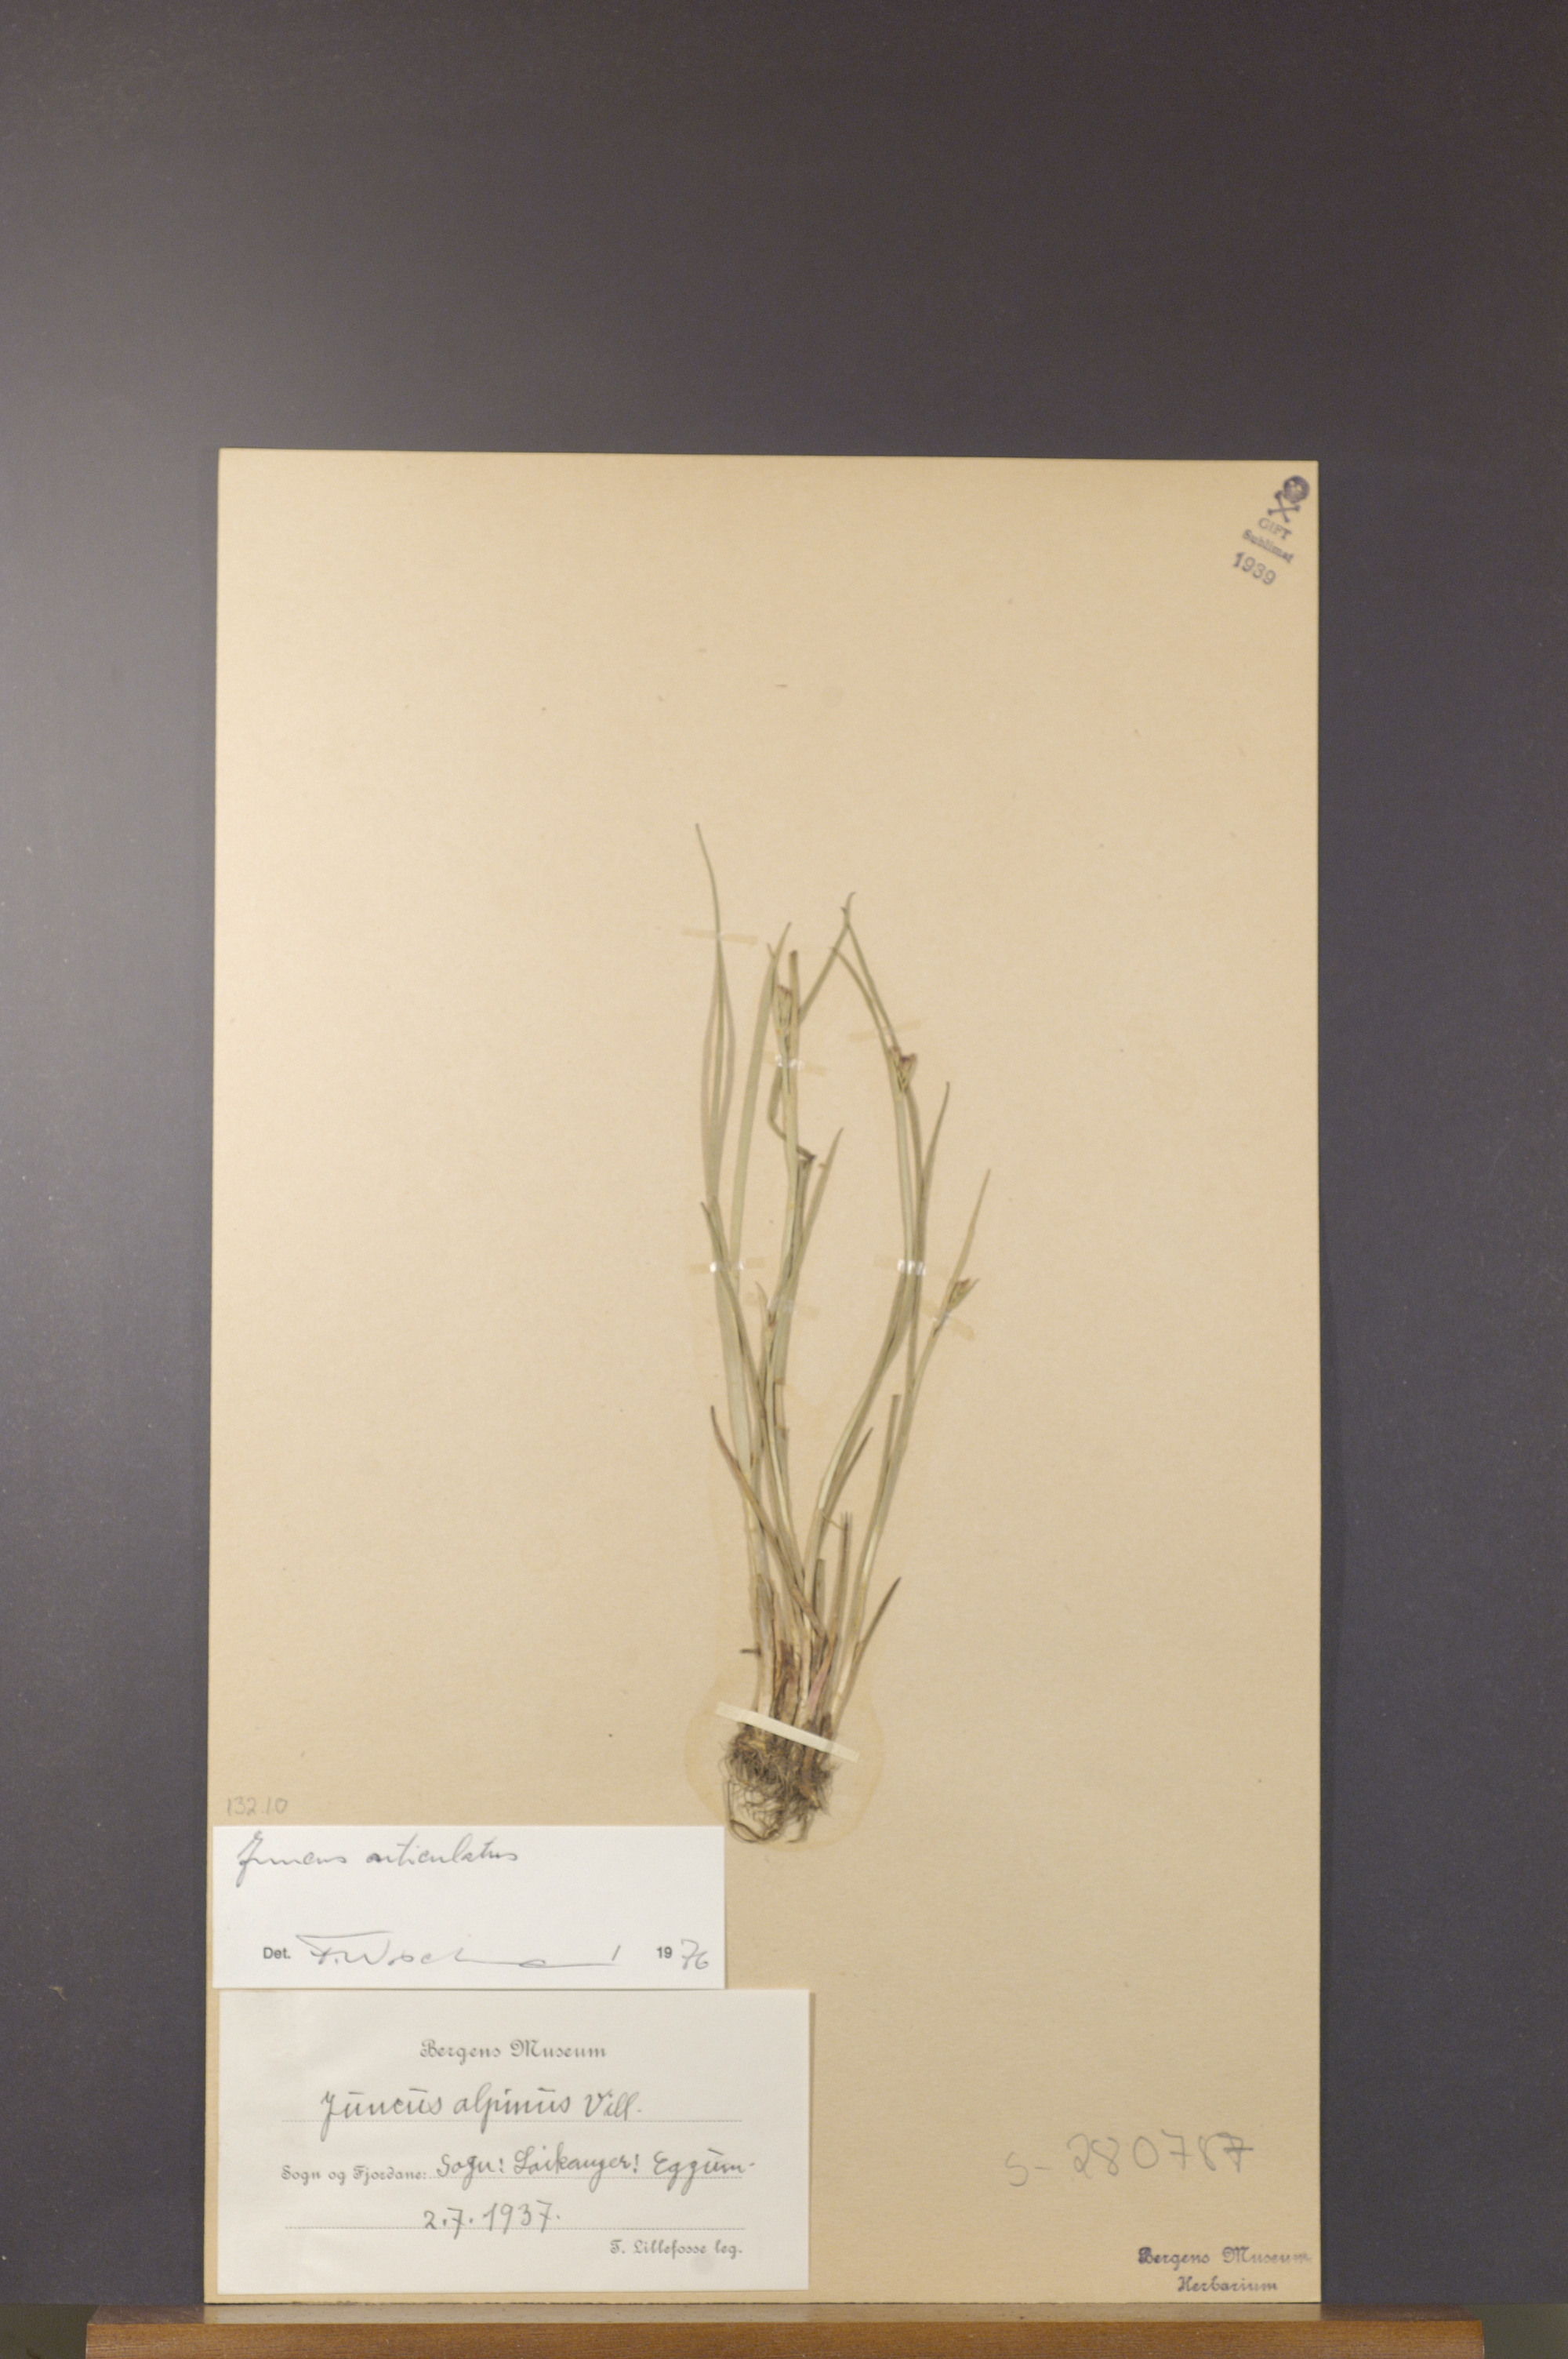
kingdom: Plantae
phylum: Tracheophyta
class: Liliopsida
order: Poales
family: Juncaceae
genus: Juncus
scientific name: Juncus articulatus
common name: Jointed rush
